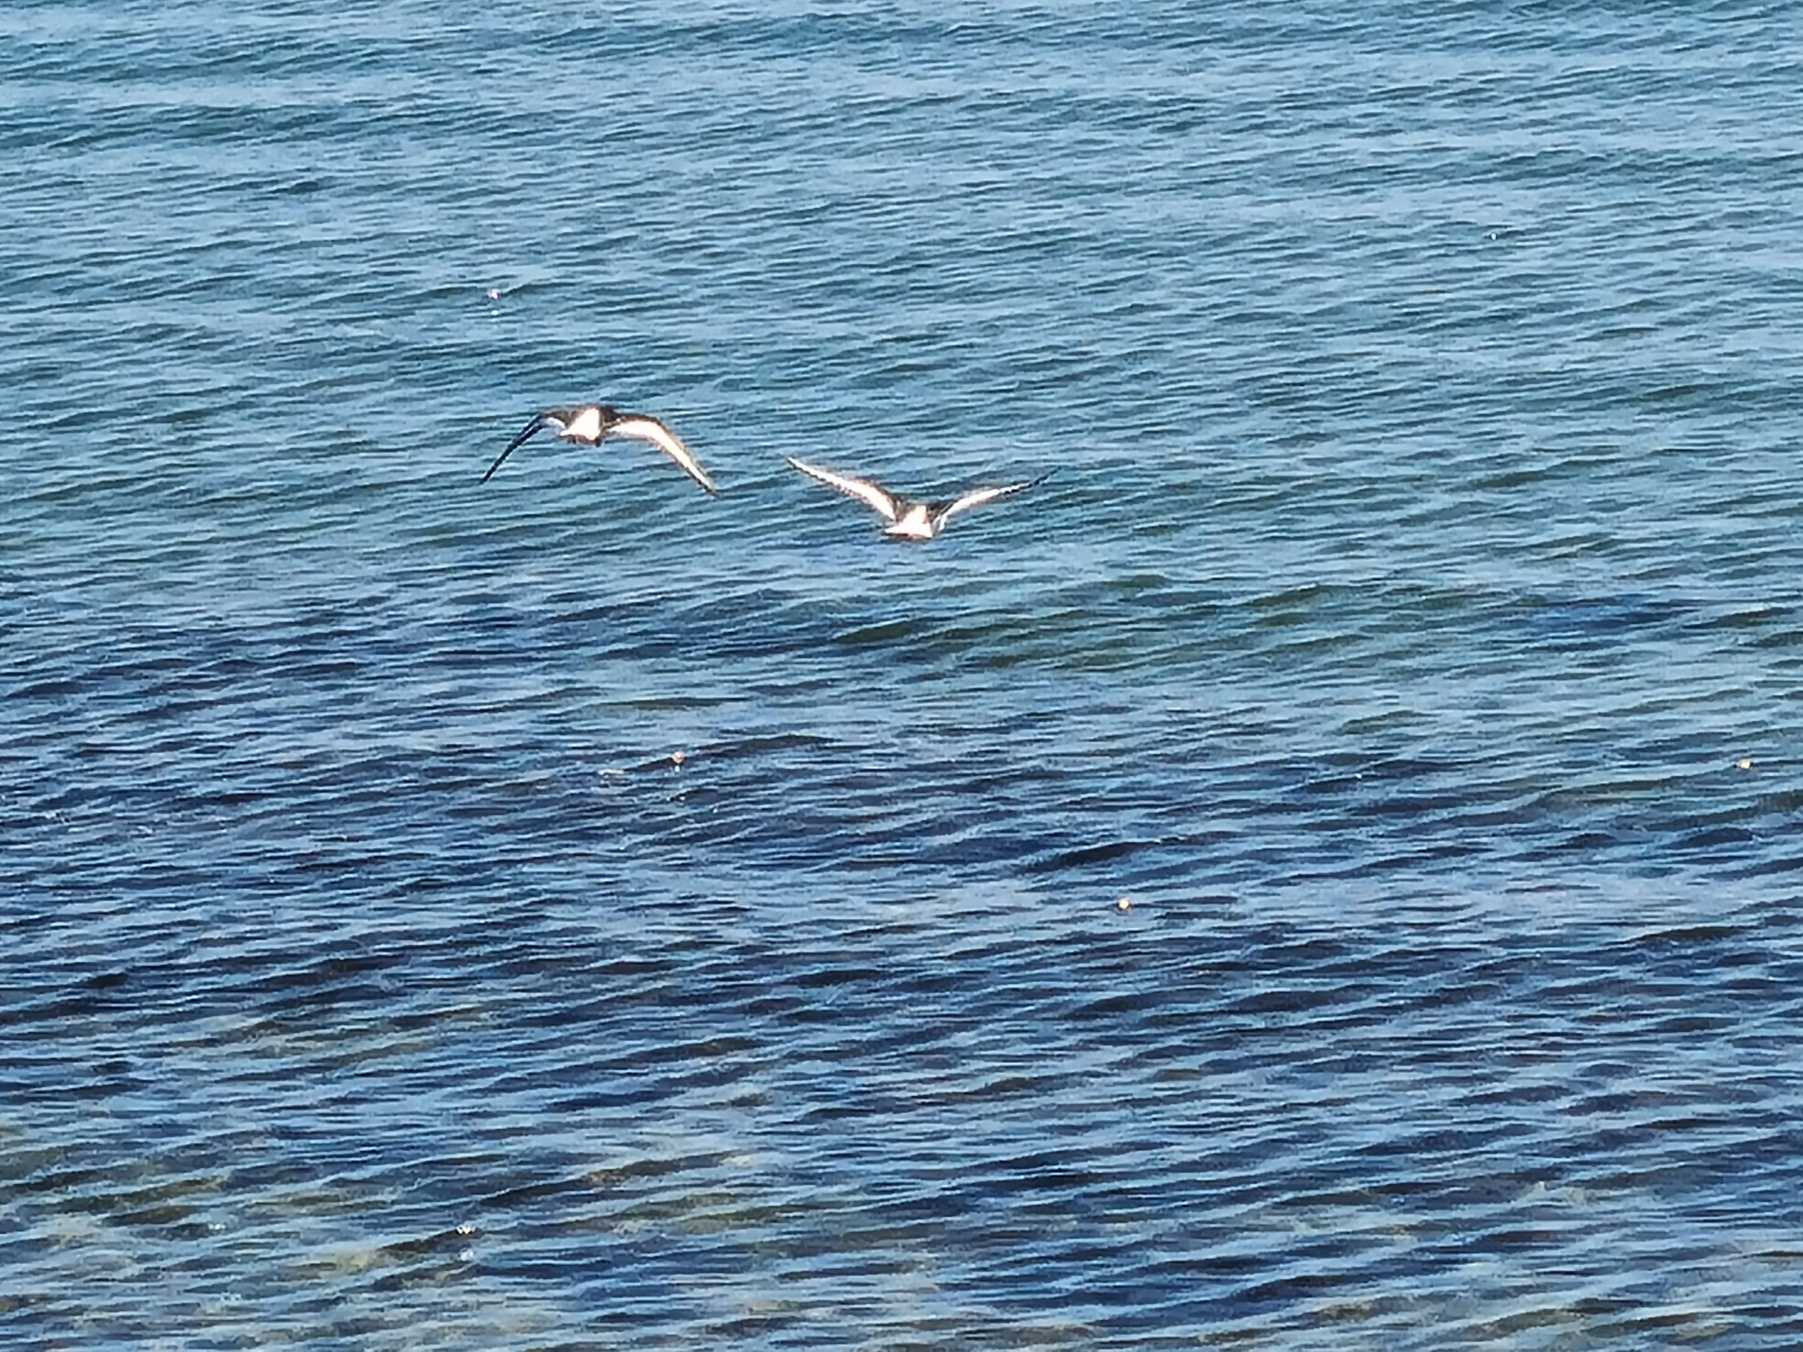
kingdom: Animalia
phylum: Chordata
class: Aves
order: Charadriiformes
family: Haematopodidae
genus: Haematopus
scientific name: Haematopus ostralegus
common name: Strandskade
